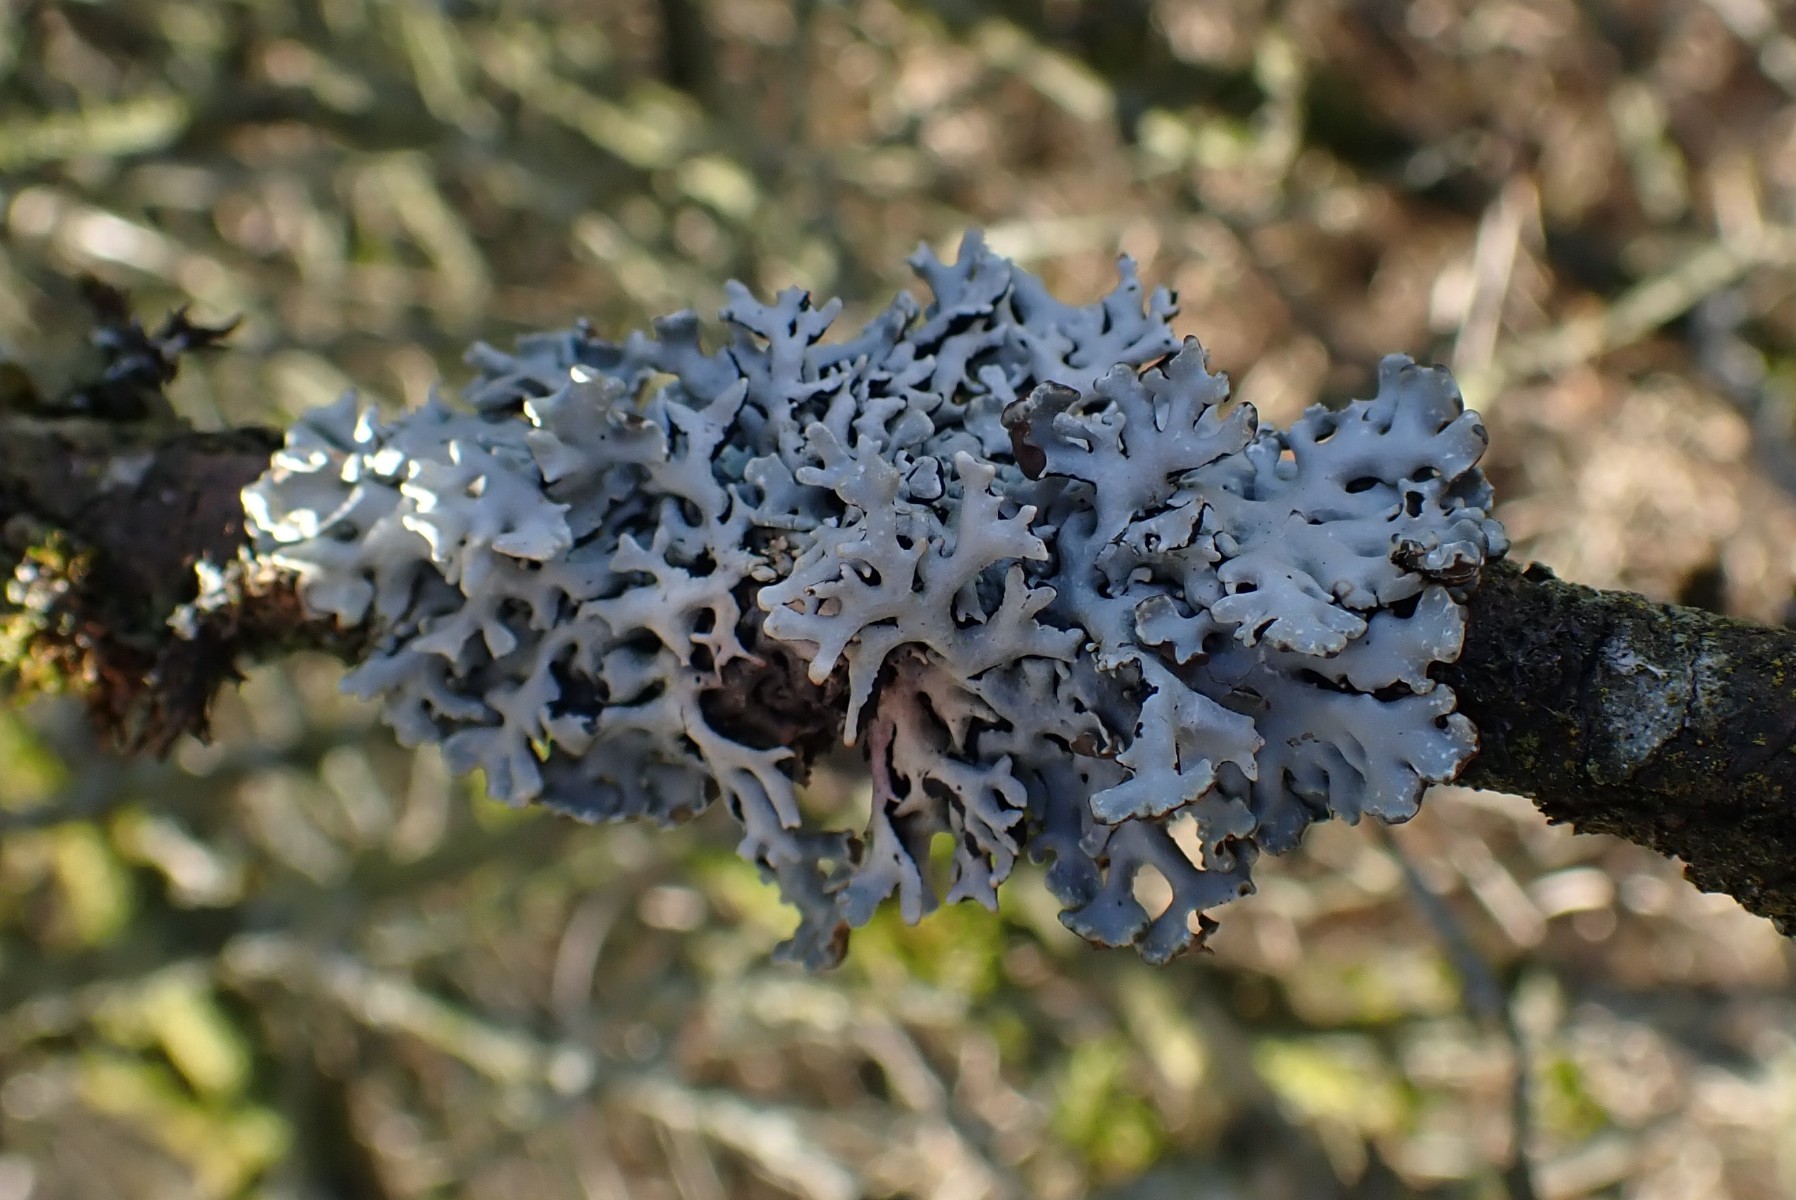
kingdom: Fungi
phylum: Ascomycota
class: Lecanoromycetes
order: Lecanorales
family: Parmeliaceae
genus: Hypogymnia
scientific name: Hypogymnia physodes
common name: almindelig kvistlav
